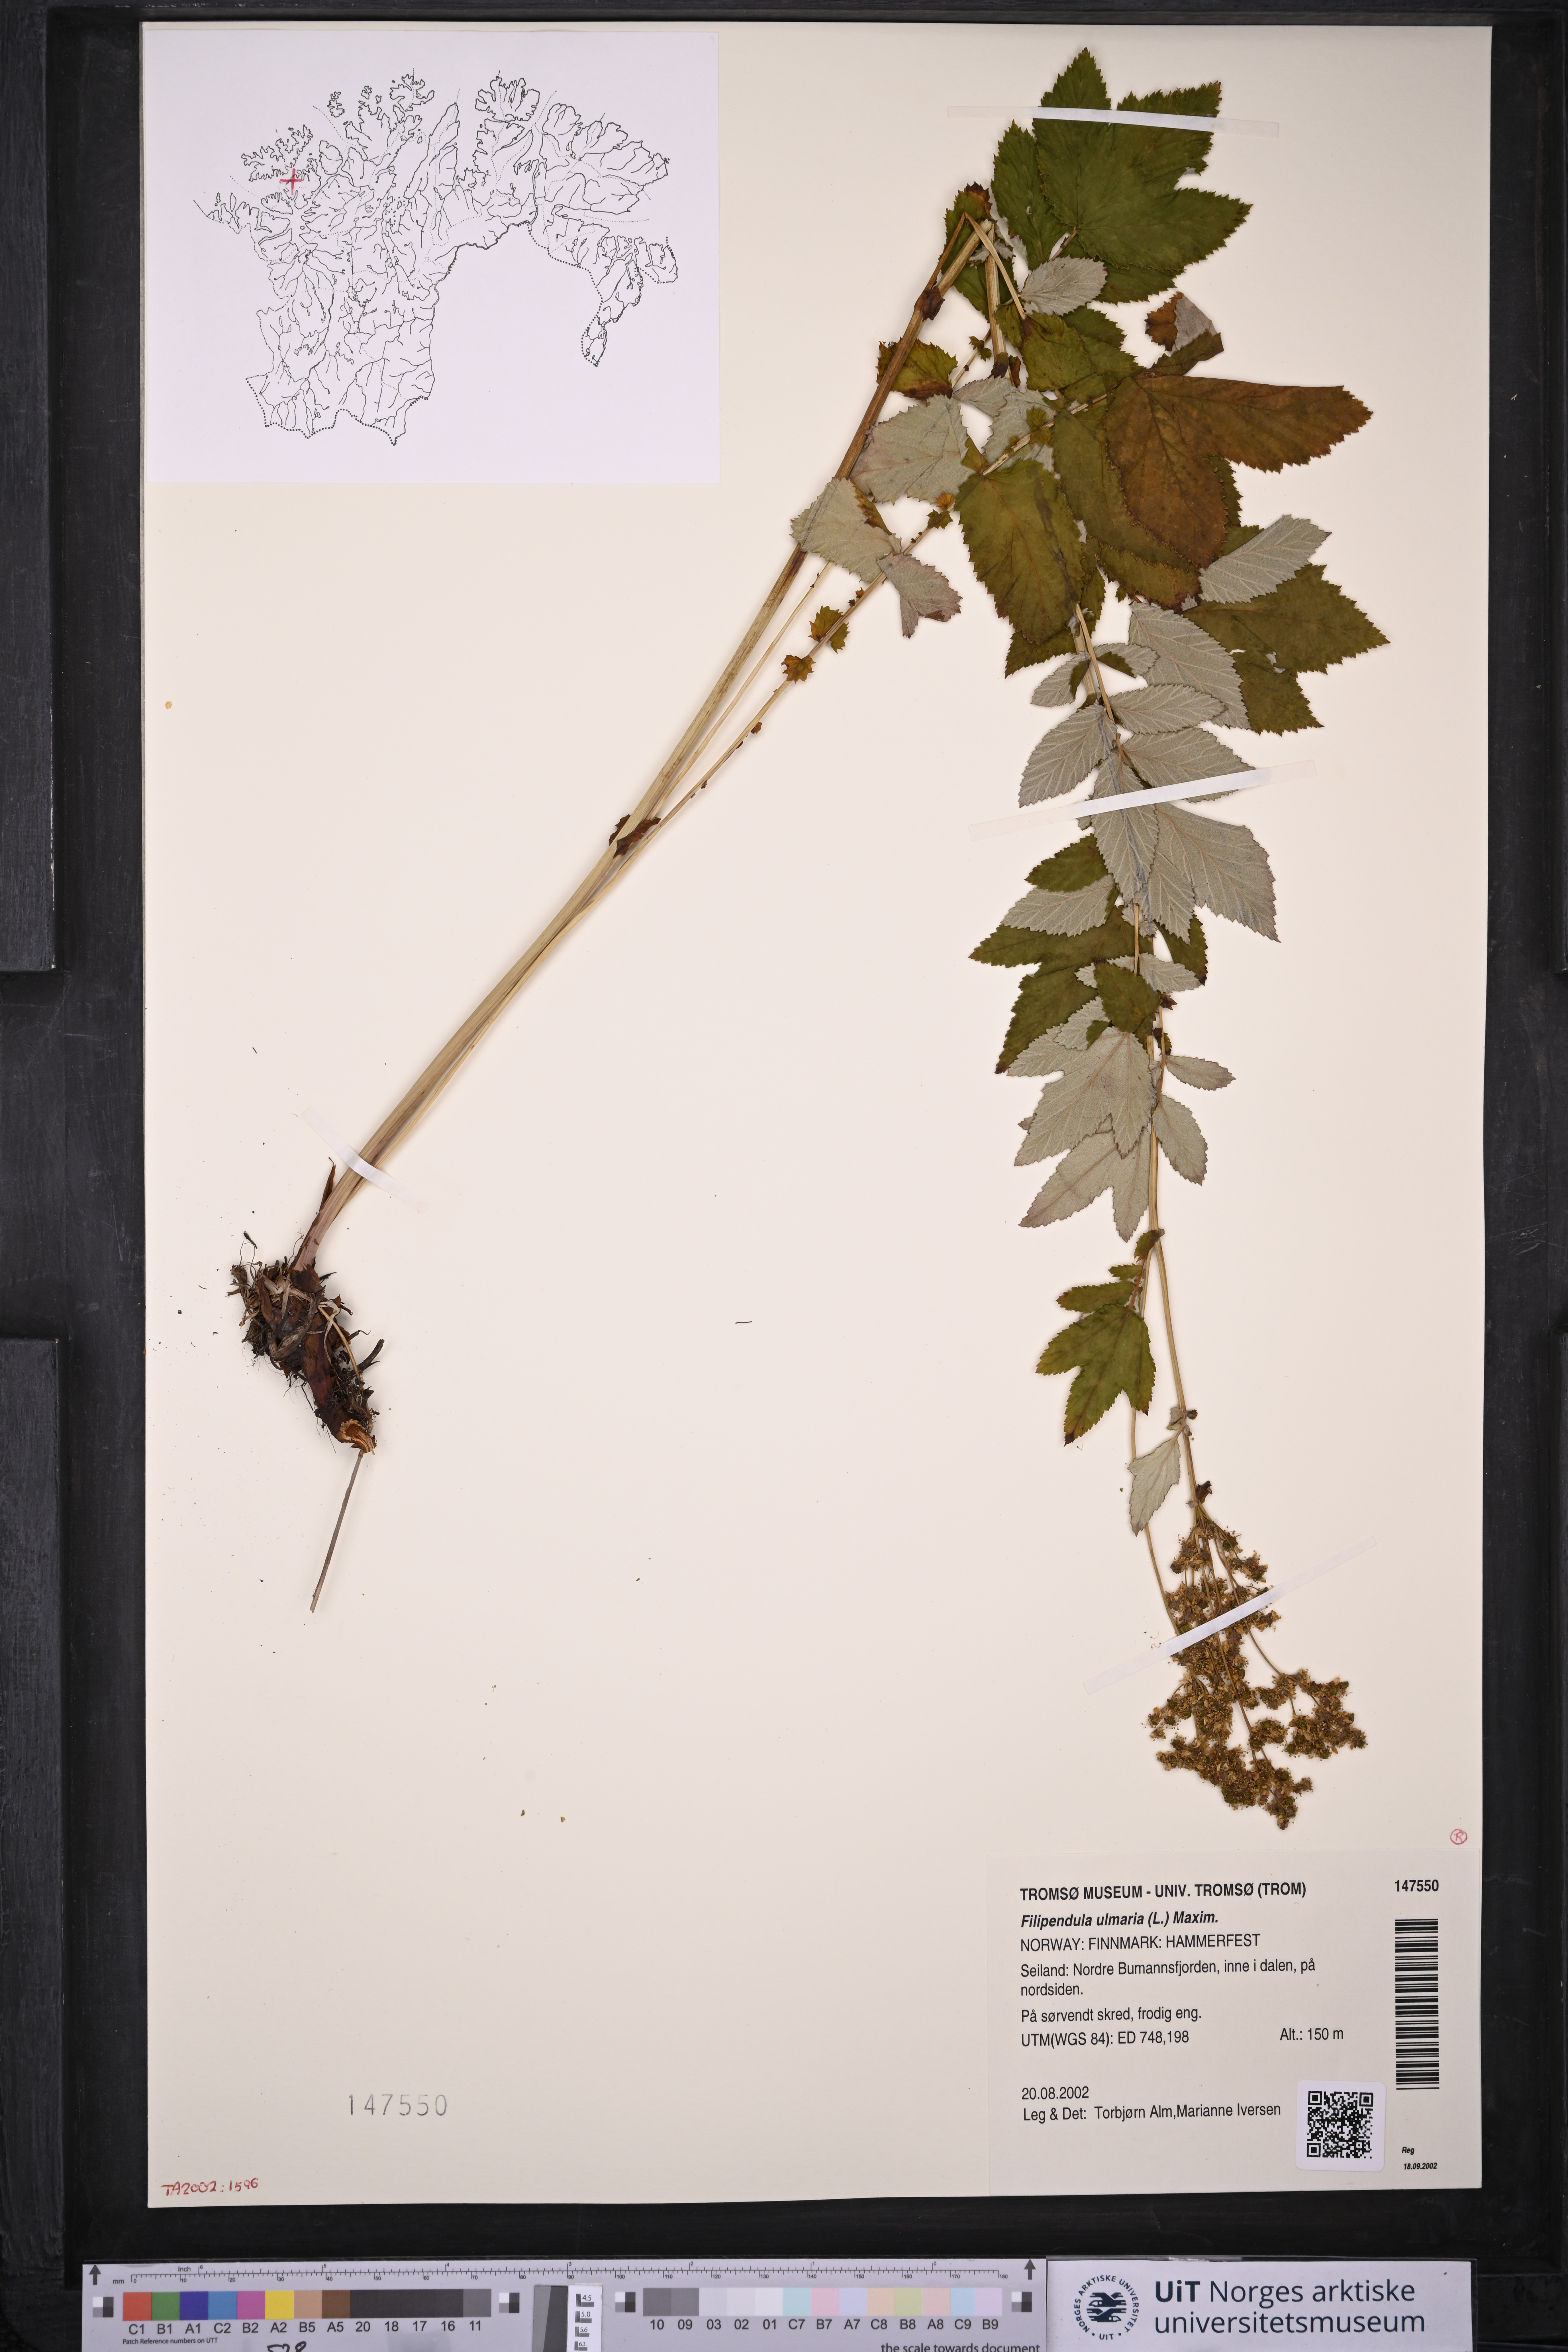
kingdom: Plantae
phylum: Tracheophyta
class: Magnoliopsida
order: Rosales
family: Rosaceae
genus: Filipendula
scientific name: Filipendula ulmaria
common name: Meadowsweet
